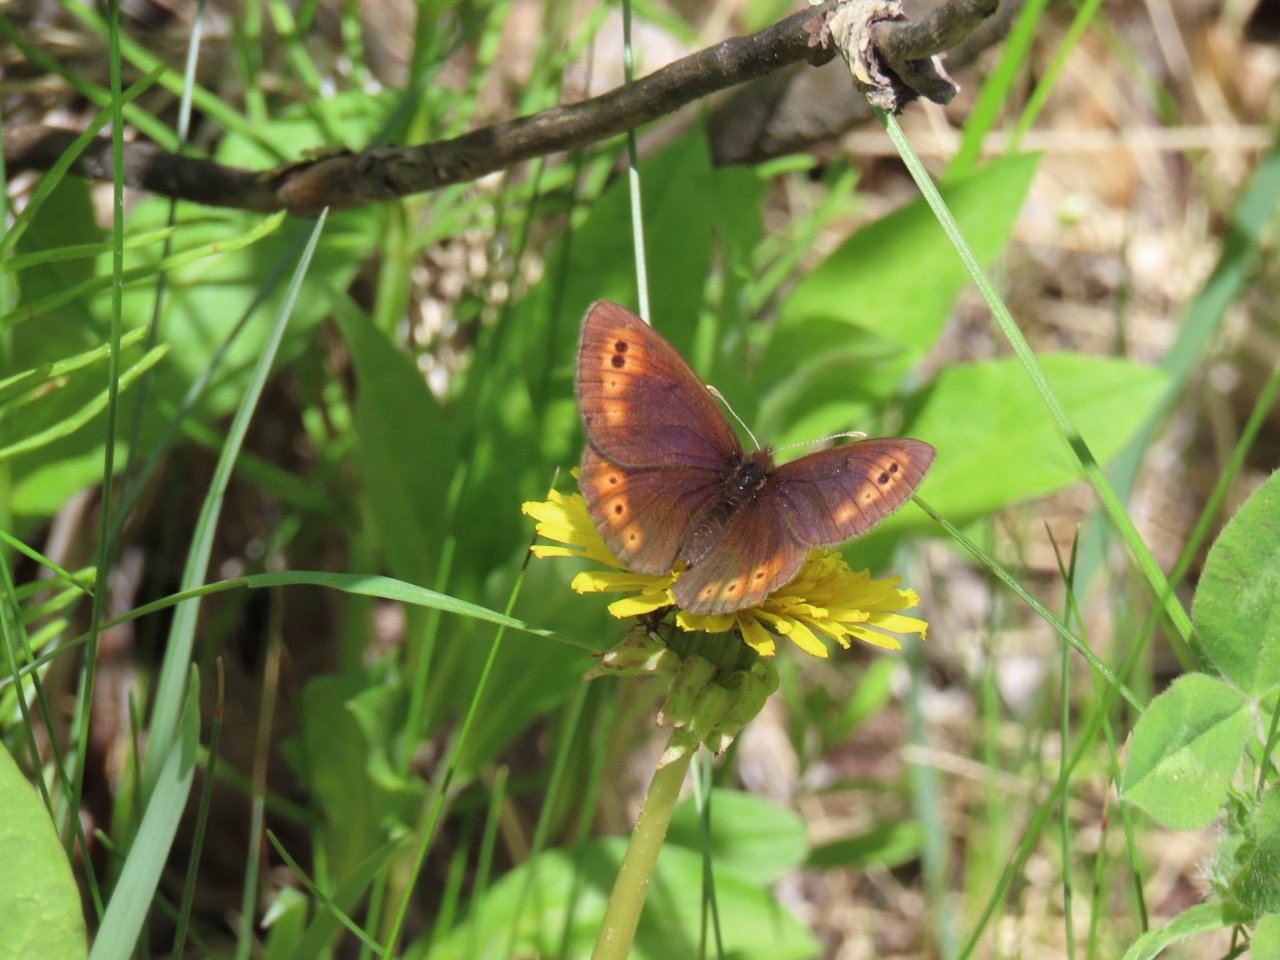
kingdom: Animalia
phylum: Arthropoda
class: Insecta
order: Lepidoptera
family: Nymphalidae
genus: Erebia
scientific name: Erebia epipsodea
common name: Common Alpine
